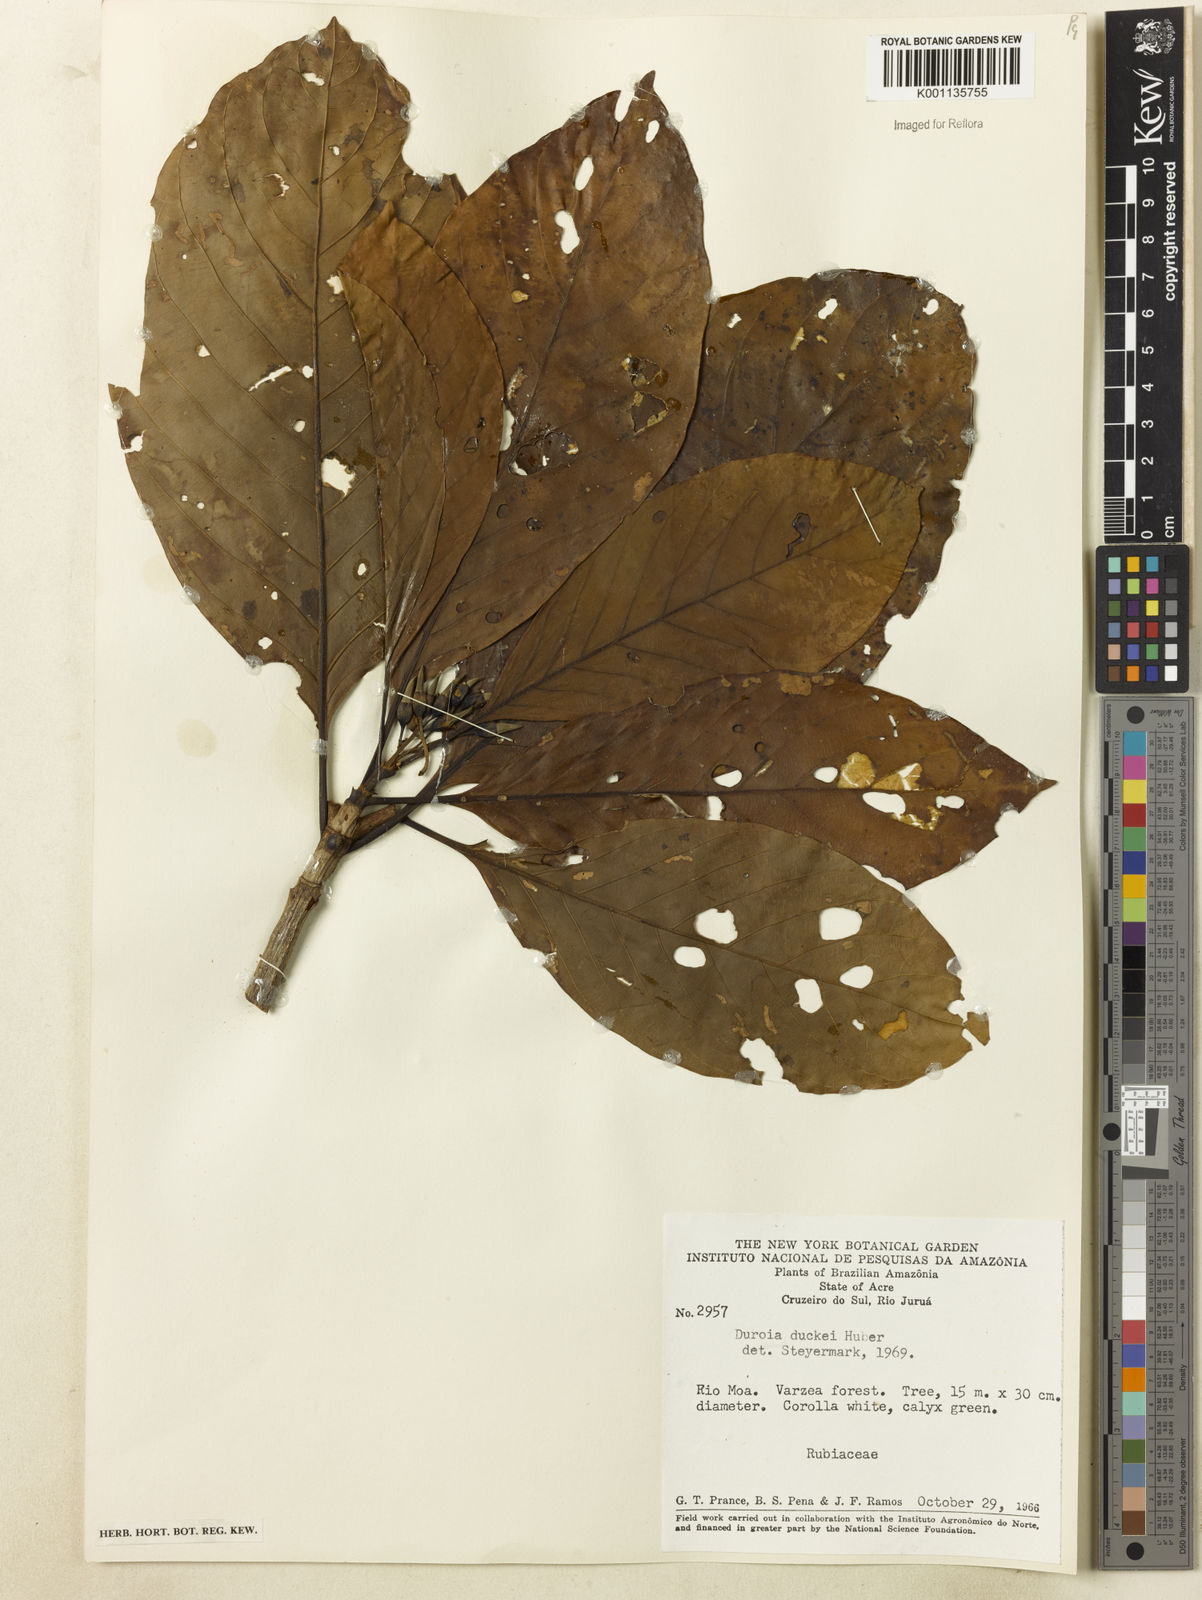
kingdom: Plantae
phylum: Tracheophyta
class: Magnoliopsida
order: Gentianales
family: Rubiaceae
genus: Duroia
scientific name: Duroia duckei
